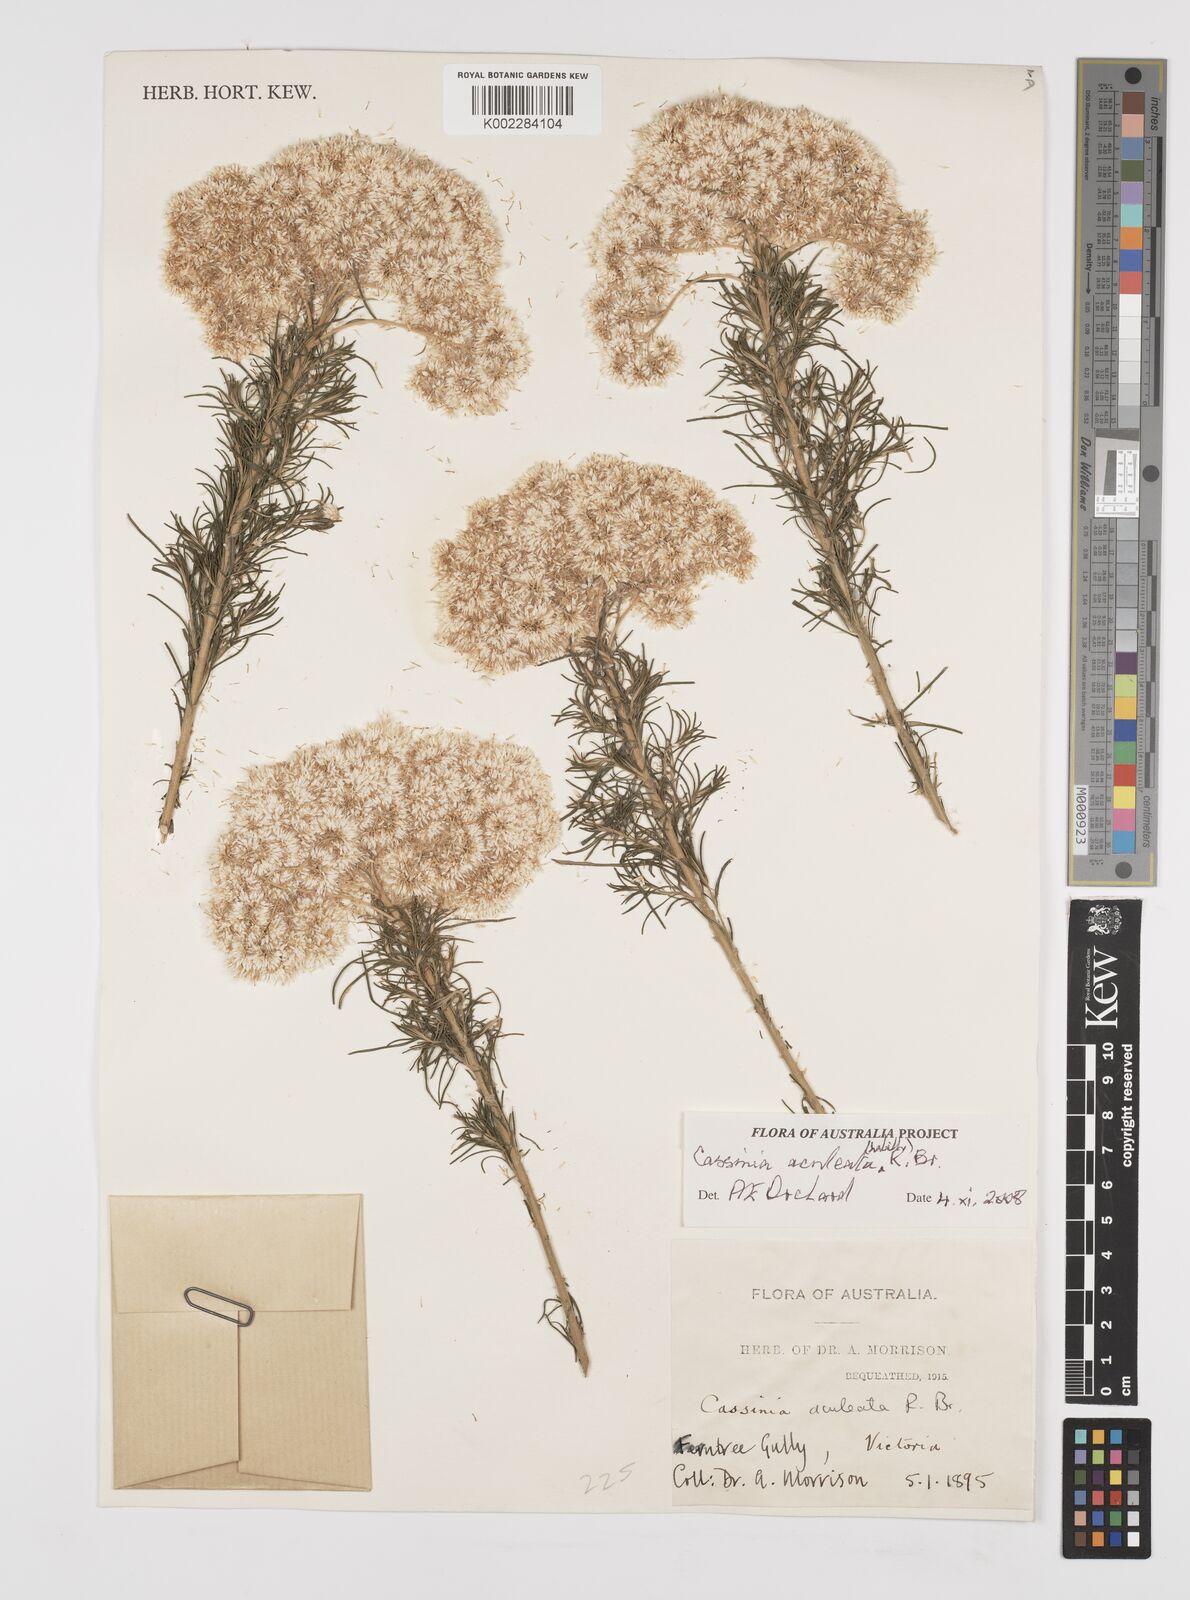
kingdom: Plantae
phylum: Tracheophyta
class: Magnoliopsida
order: Asterales
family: Asteraceae
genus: Cassinia
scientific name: Cassinia aculeata
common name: Australian tauhinu
